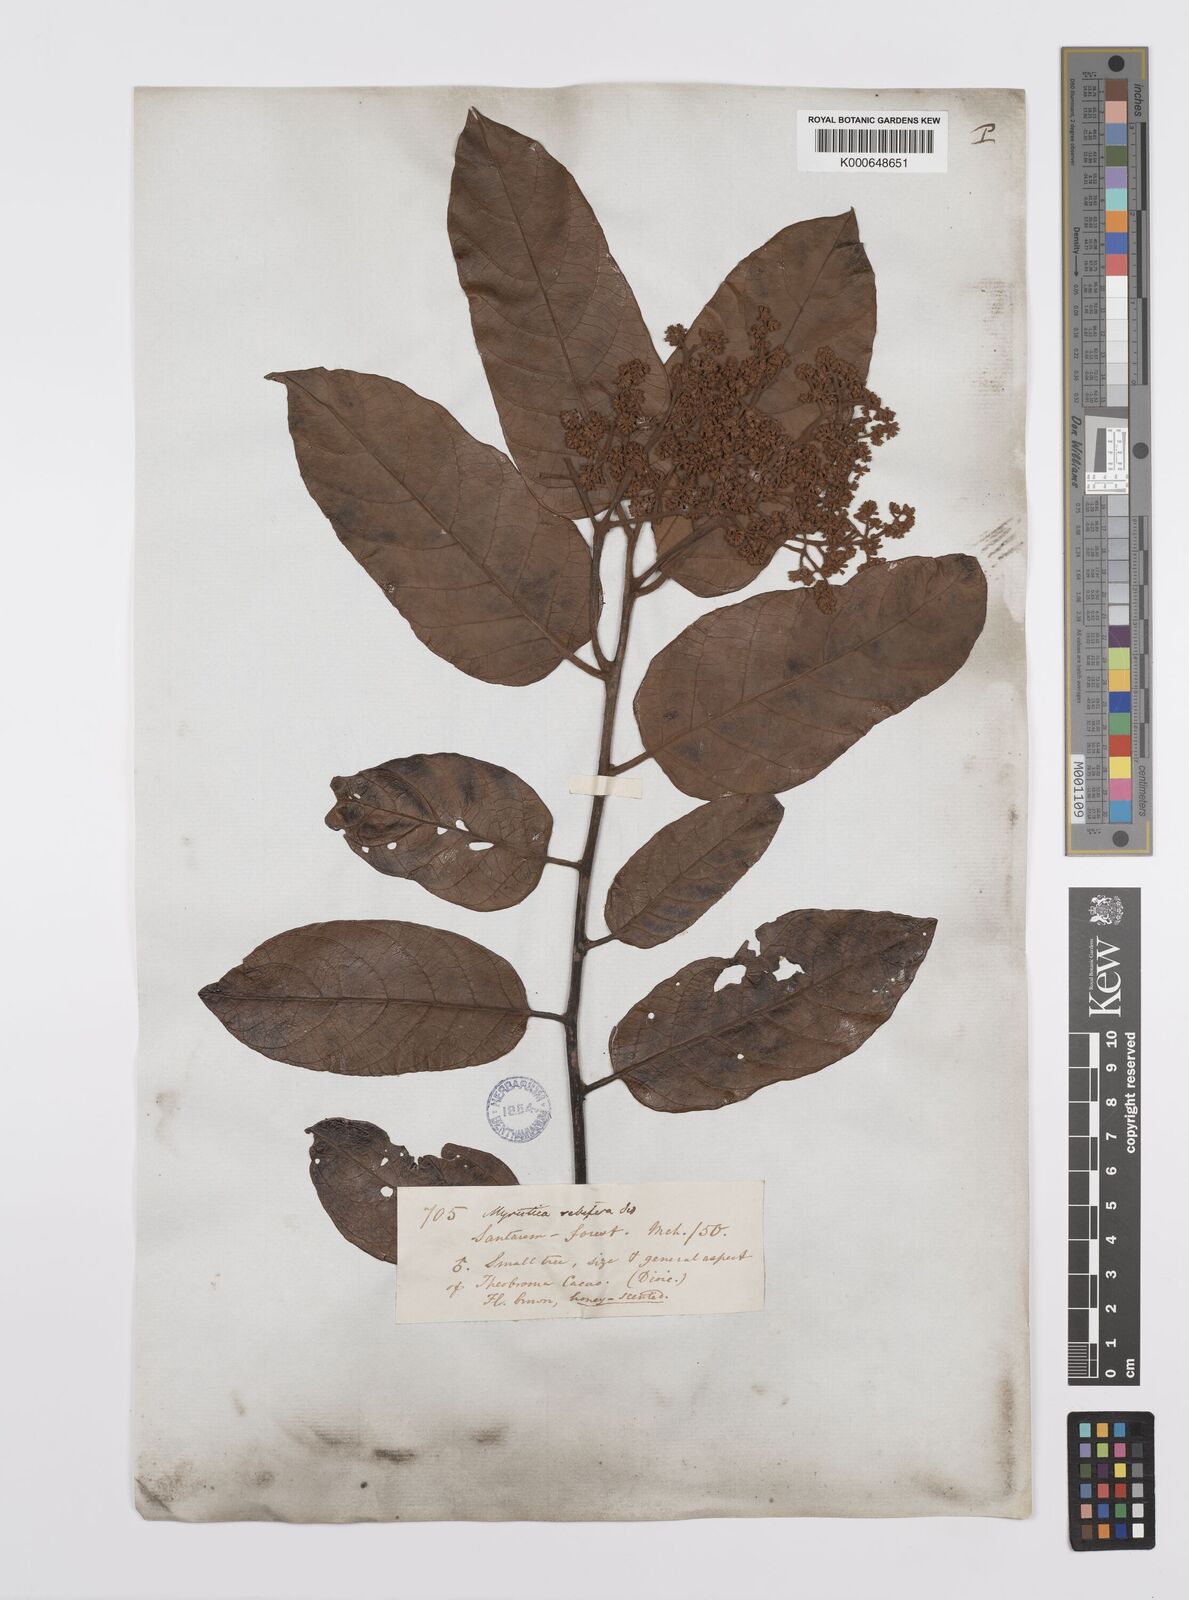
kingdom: Plantae
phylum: Tracheophyta
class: Magnoliopsida
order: Magnoliales
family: Myristicaceae
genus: Virola
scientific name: Virola sebifera
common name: Red ucuuba
